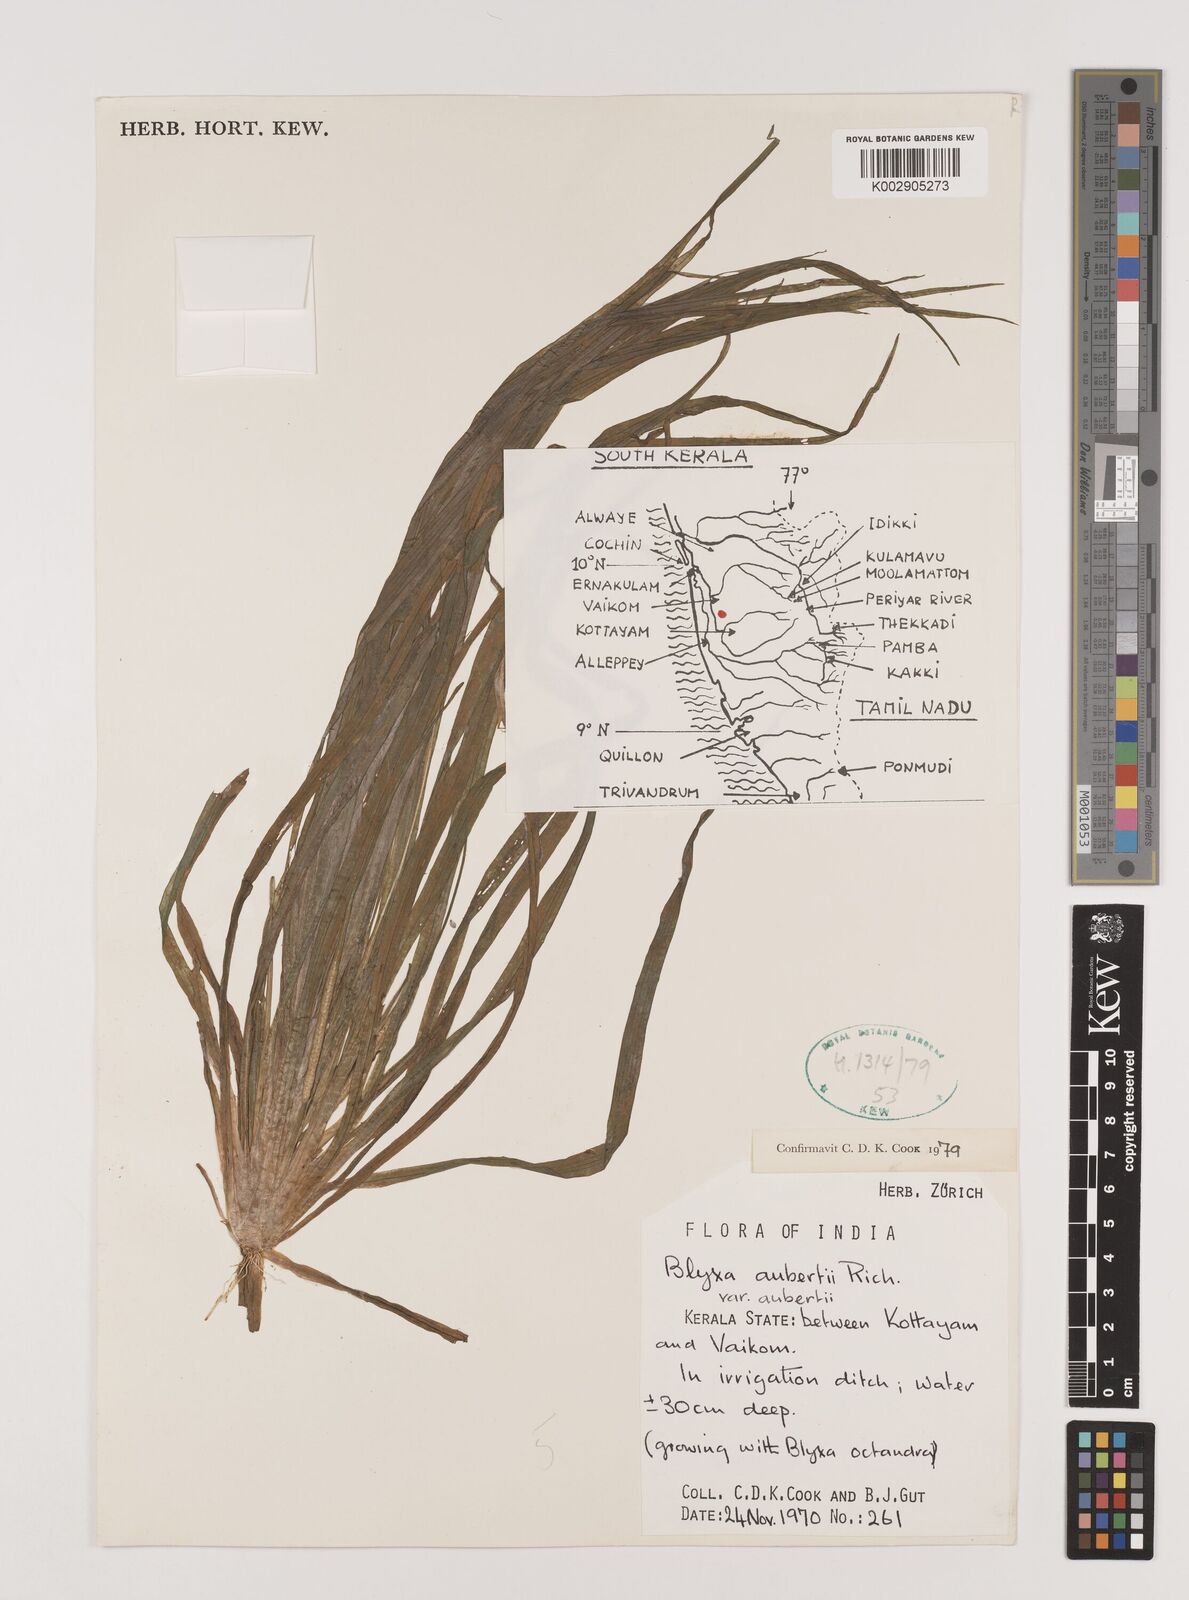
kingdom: Plantae
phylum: Tracheophyta
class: Liliopsida
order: Alismatales
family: Hydrocharitaceae
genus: Blyxa
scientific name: Blyxa aubertii
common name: Roundfruit blyxa
